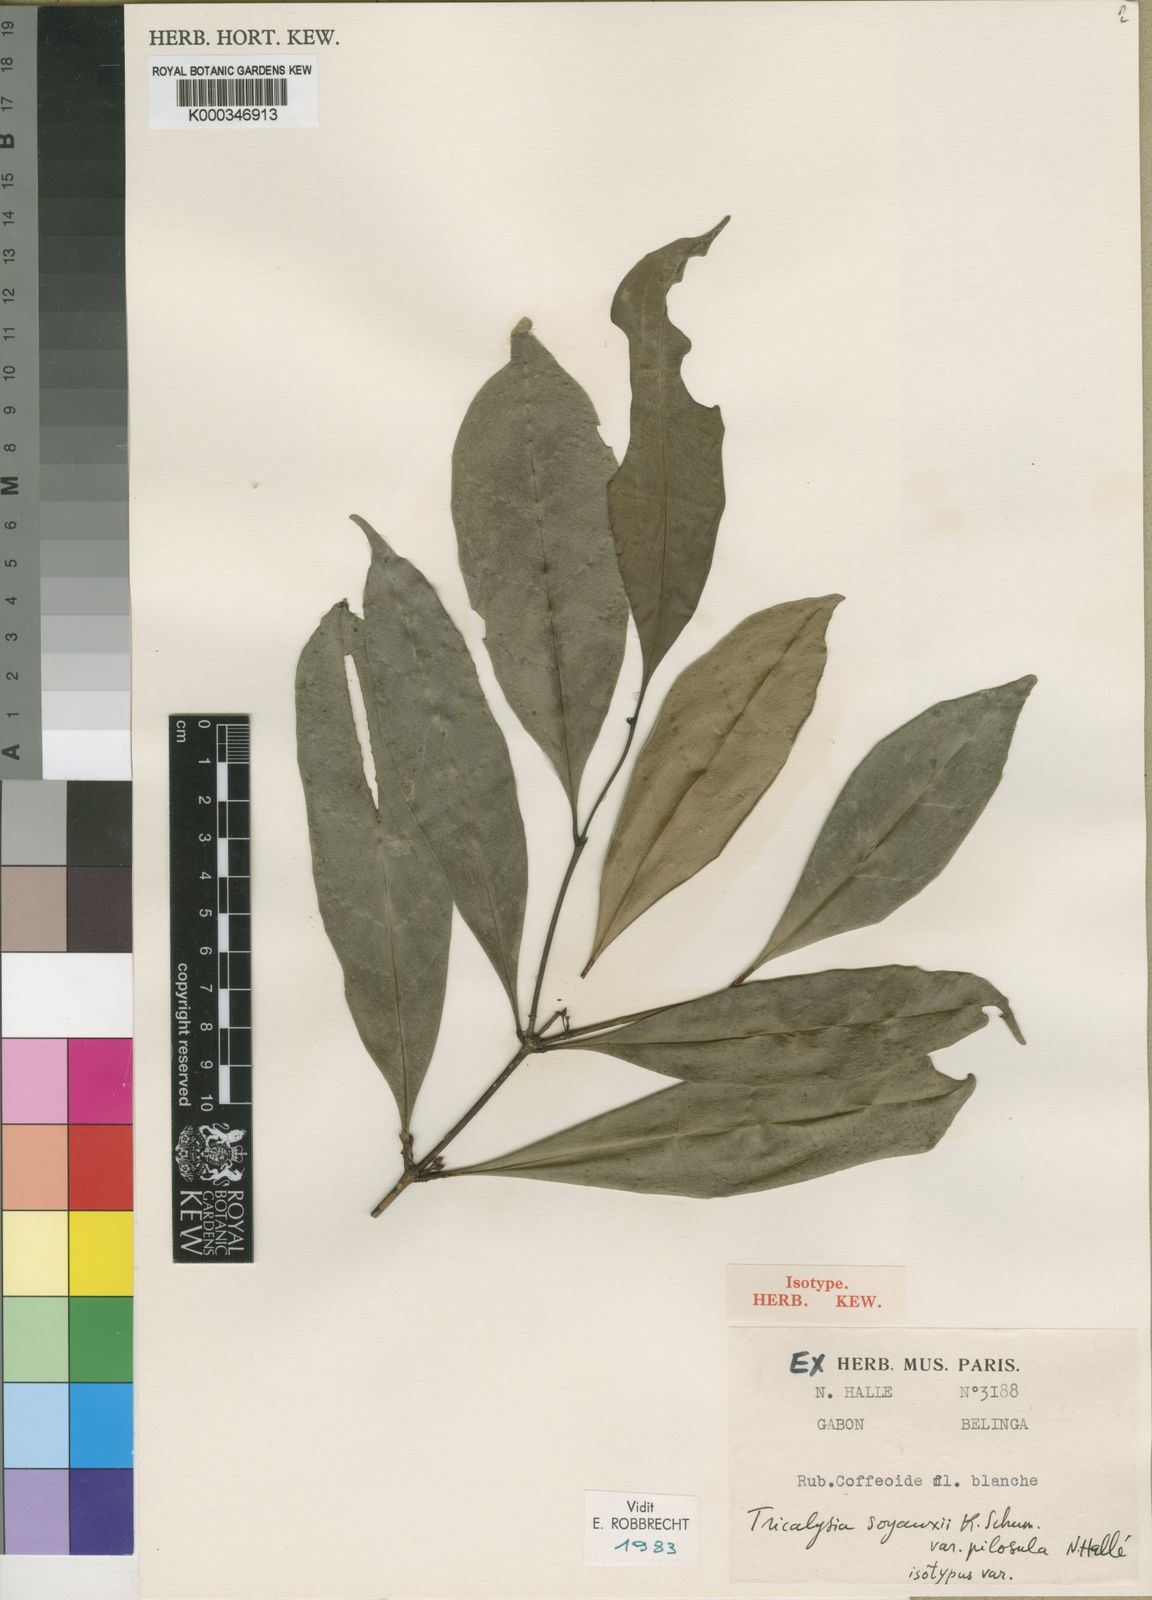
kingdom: Plantae
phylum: Tracheophyta
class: Magnoliopsida
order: Gentianales
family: Rubiaceae
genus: Tricalysia
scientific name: Tricalysia
